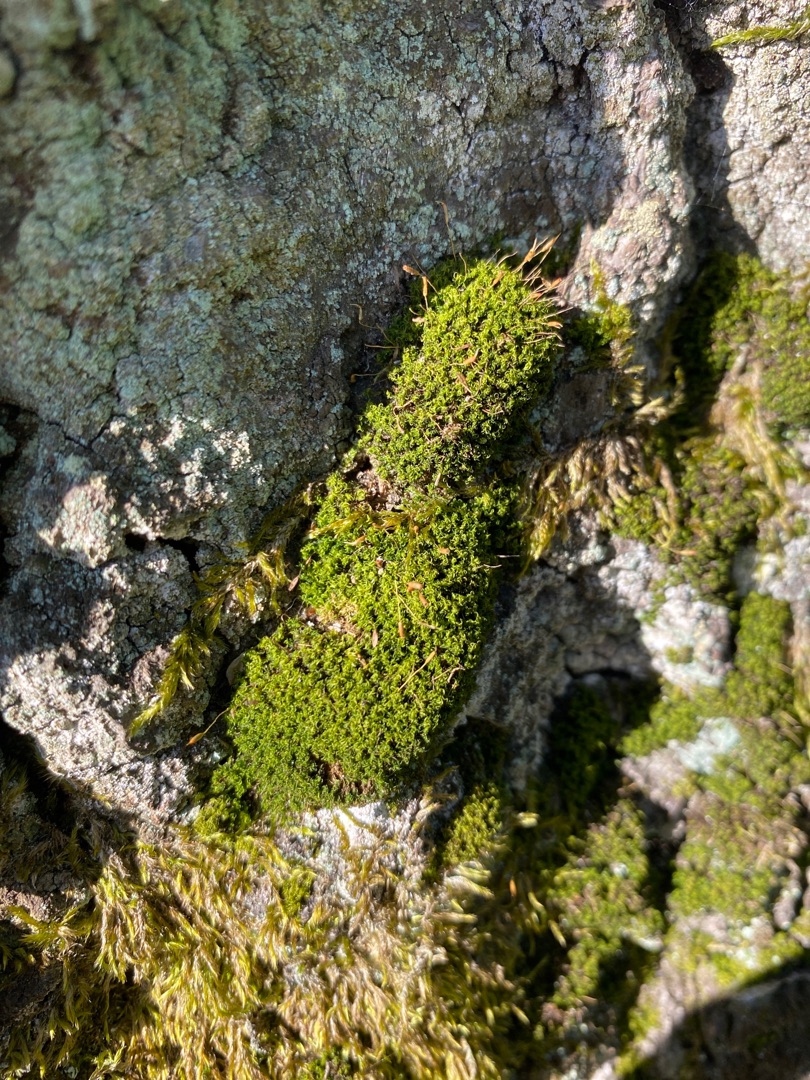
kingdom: Plantae
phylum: Bryophyta
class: Bryopsida
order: Dicranales
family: Rhabdoweisiaceae
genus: Dicranoweisia
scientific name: Dicranoweisia cirrata
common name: Almindelig krøltuemos
